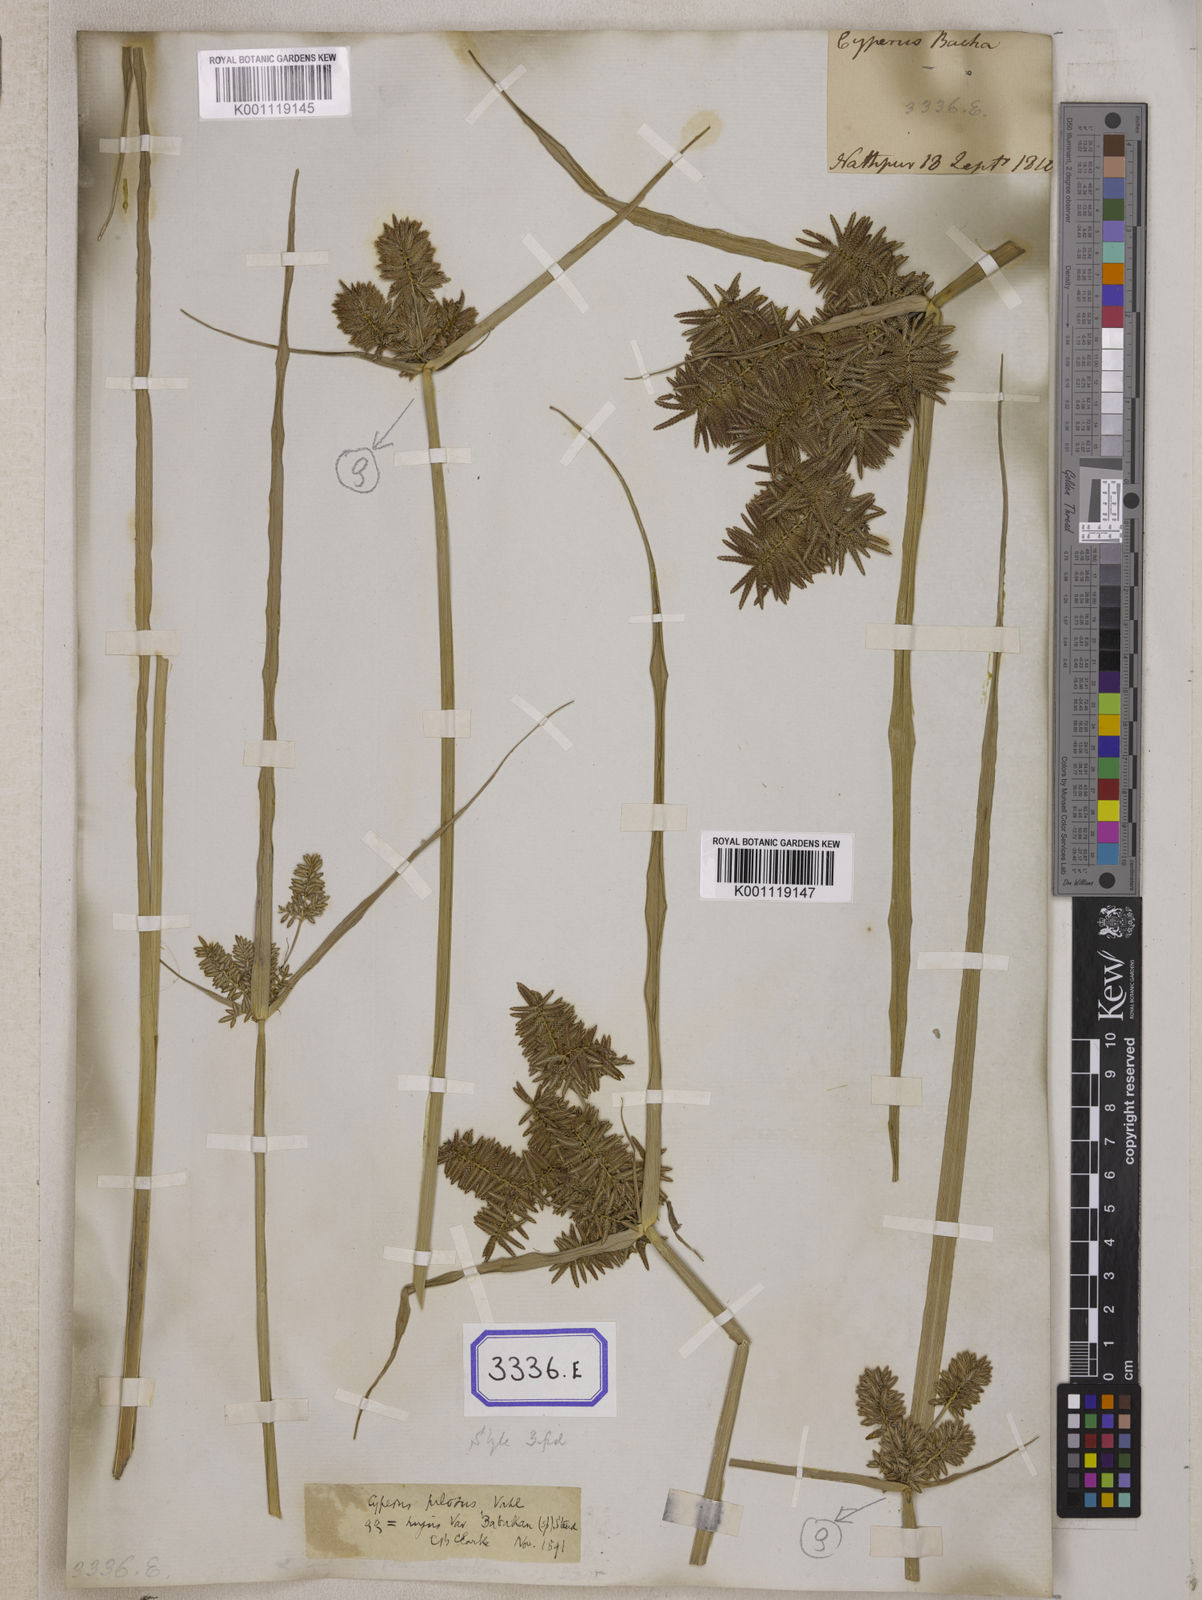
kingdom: Plantae
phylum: Tracheophyta
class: Liliopsida
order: Poales
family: Cyperaceae
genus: Cyperus
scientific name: Cyperus
